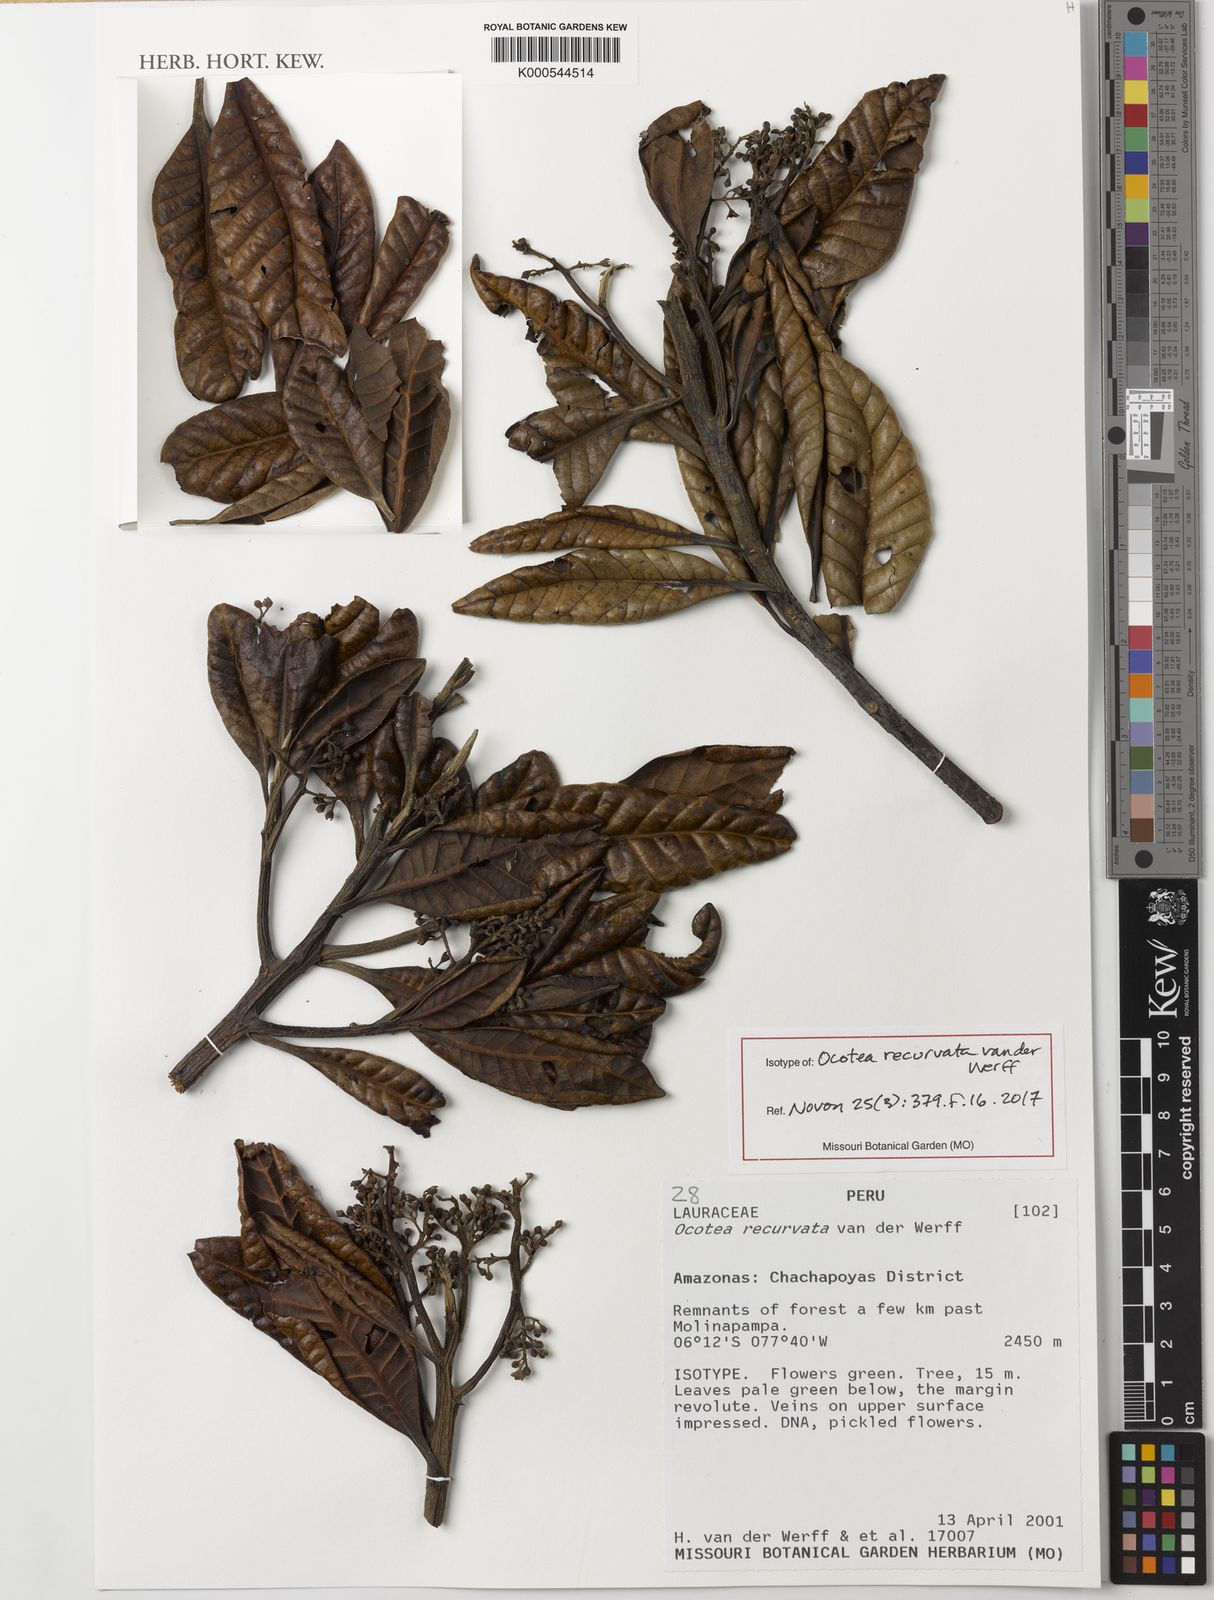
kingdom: Plantae
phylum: Tracheophyta
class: Magnoliopsida
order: Laurales
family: Lauraceae
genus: Ocotea
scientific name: Ocotea recurvata
